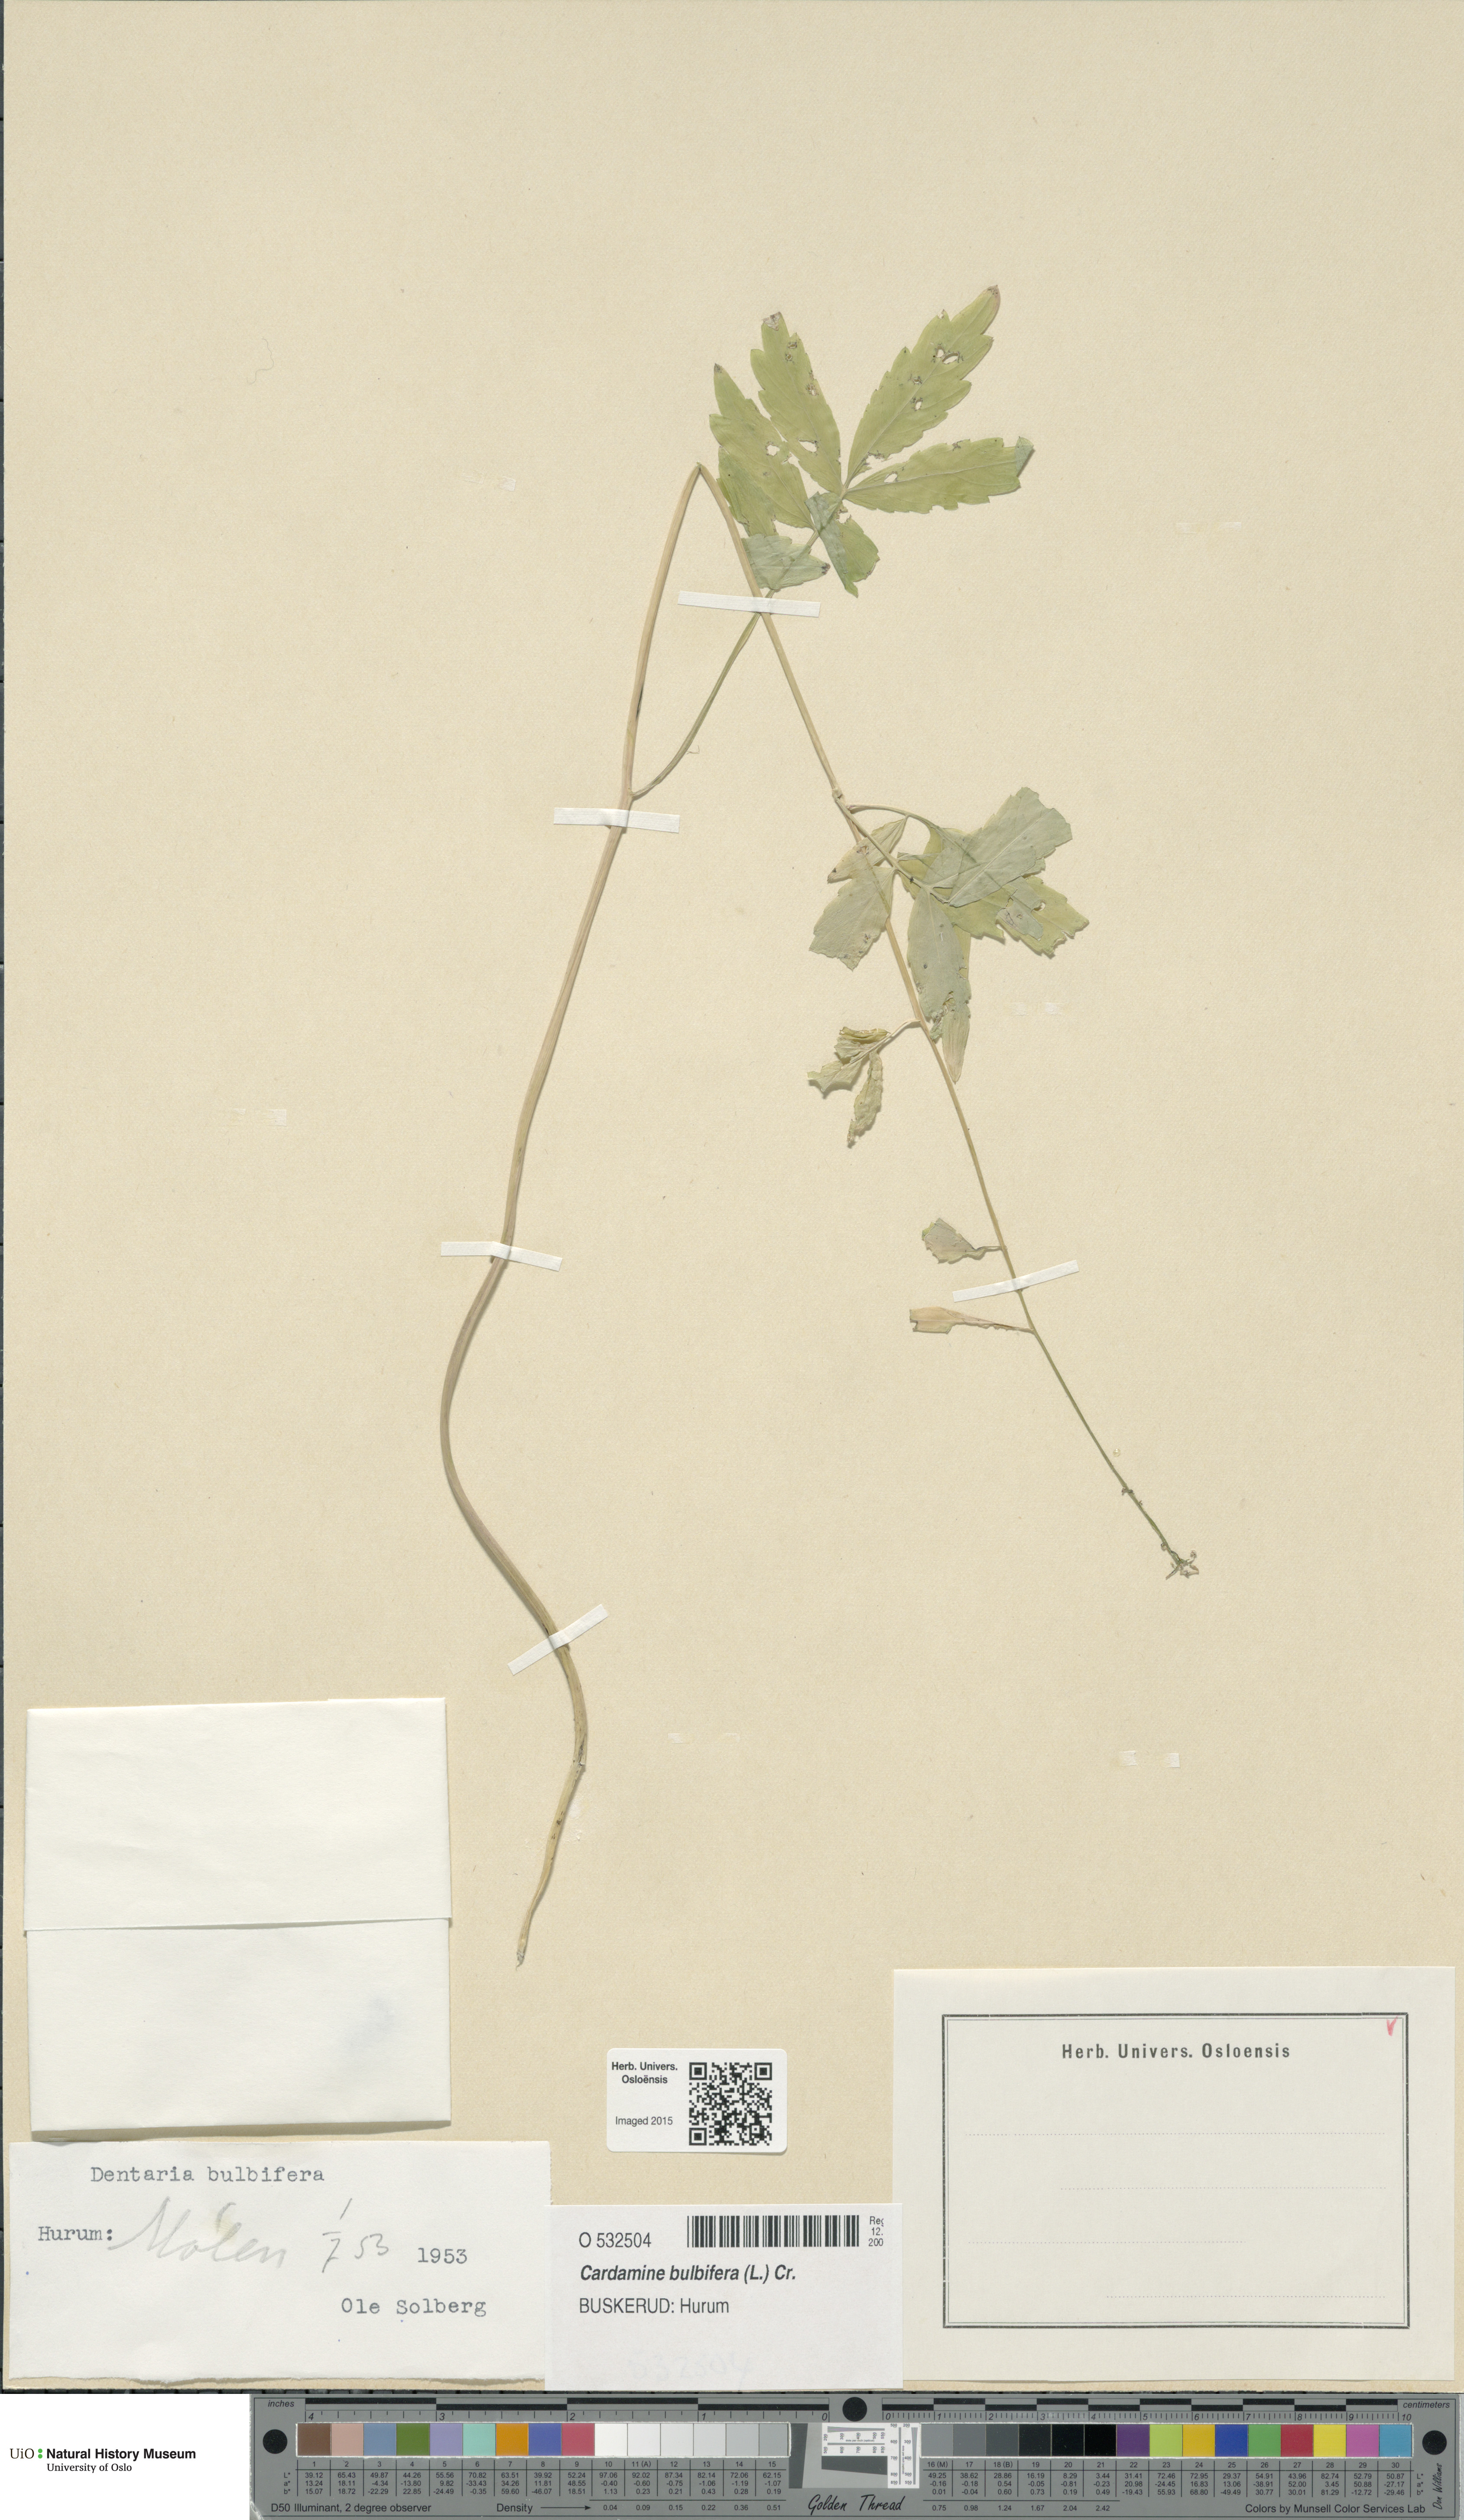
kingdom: Plantae
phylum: Tracheophyta
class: Magnoliopsida
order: Brassicales
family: Brassicaceae
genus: Cardamine
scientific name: Cardamine bulbifera
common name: Coralroot bittercress
